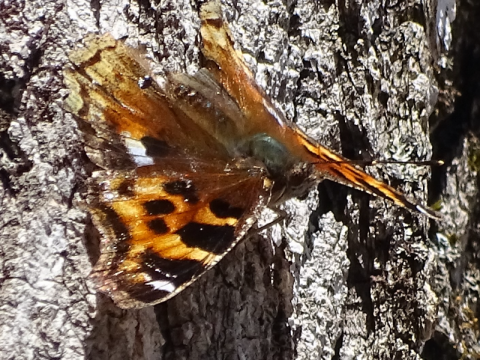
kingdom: Animalia
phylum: Arthropoda
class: Insecta
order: Lepidoptera
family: Nymphalidae
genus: Polygonia
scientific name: Polygonia vaualbum
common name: Compton Tortoiseshell
